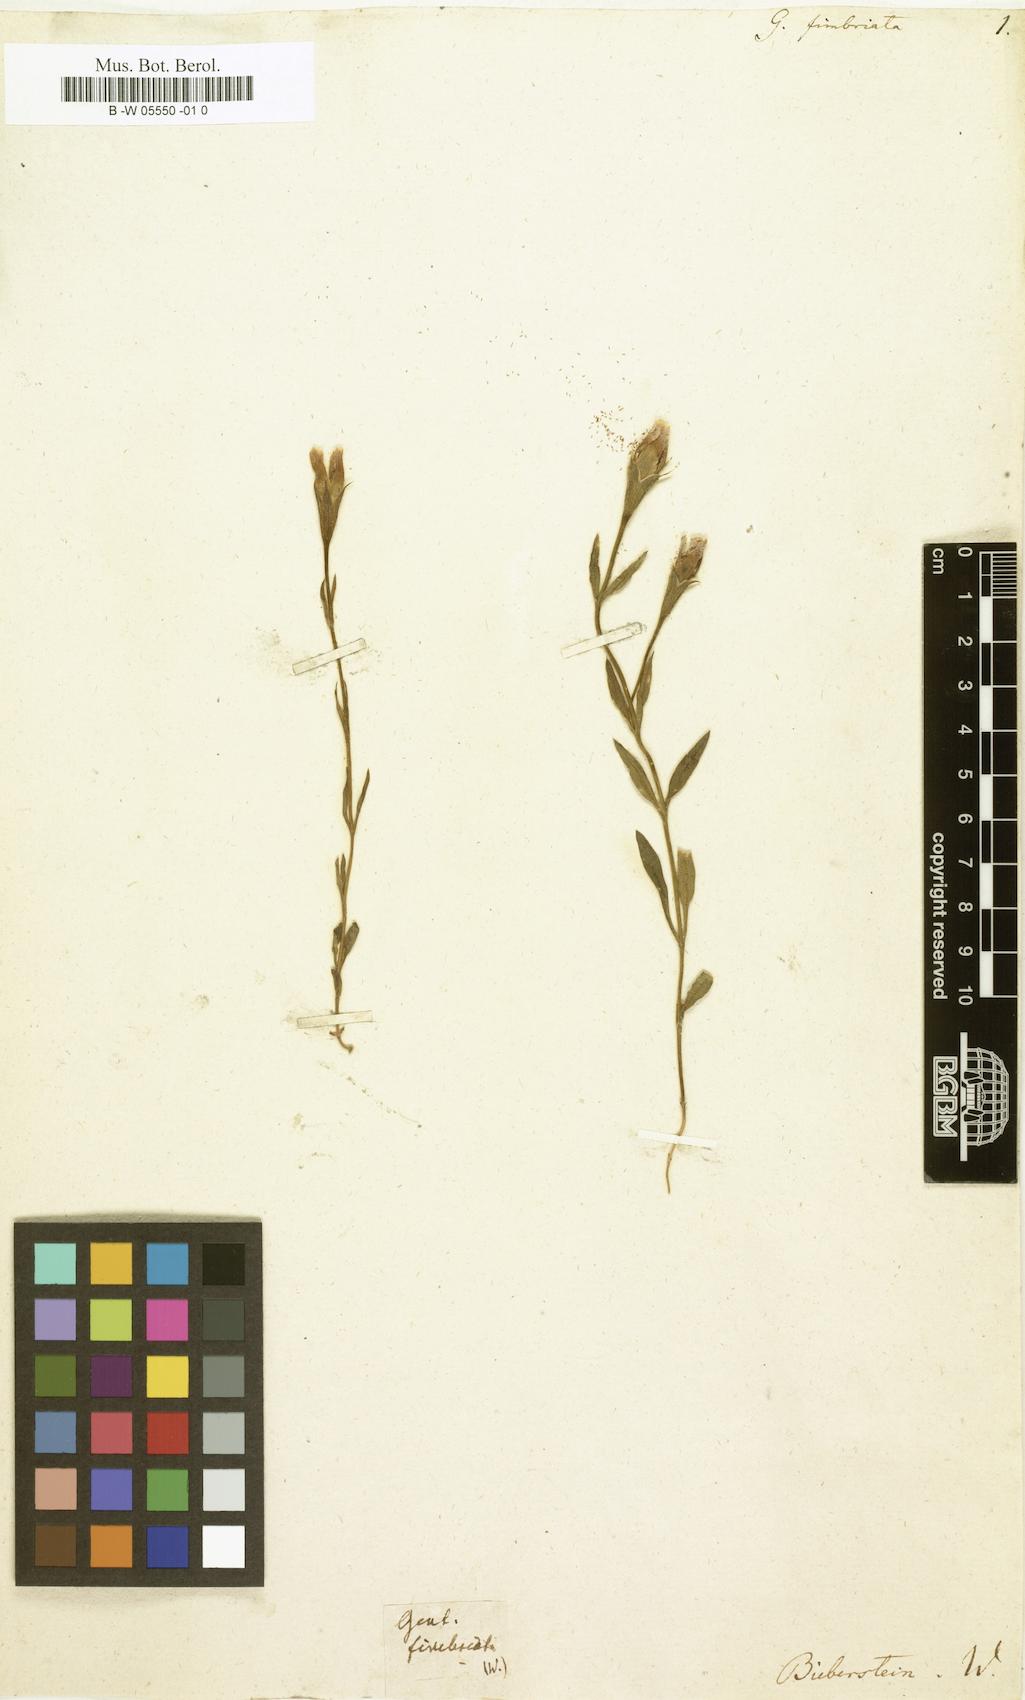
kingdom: Plantae
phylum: Tracheophyta
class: Magnoliopsida
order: Gentianales
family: Gentianaceae
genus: Comastoma
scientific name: Comastoma tenellum
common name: Dane's dwarf gentian
